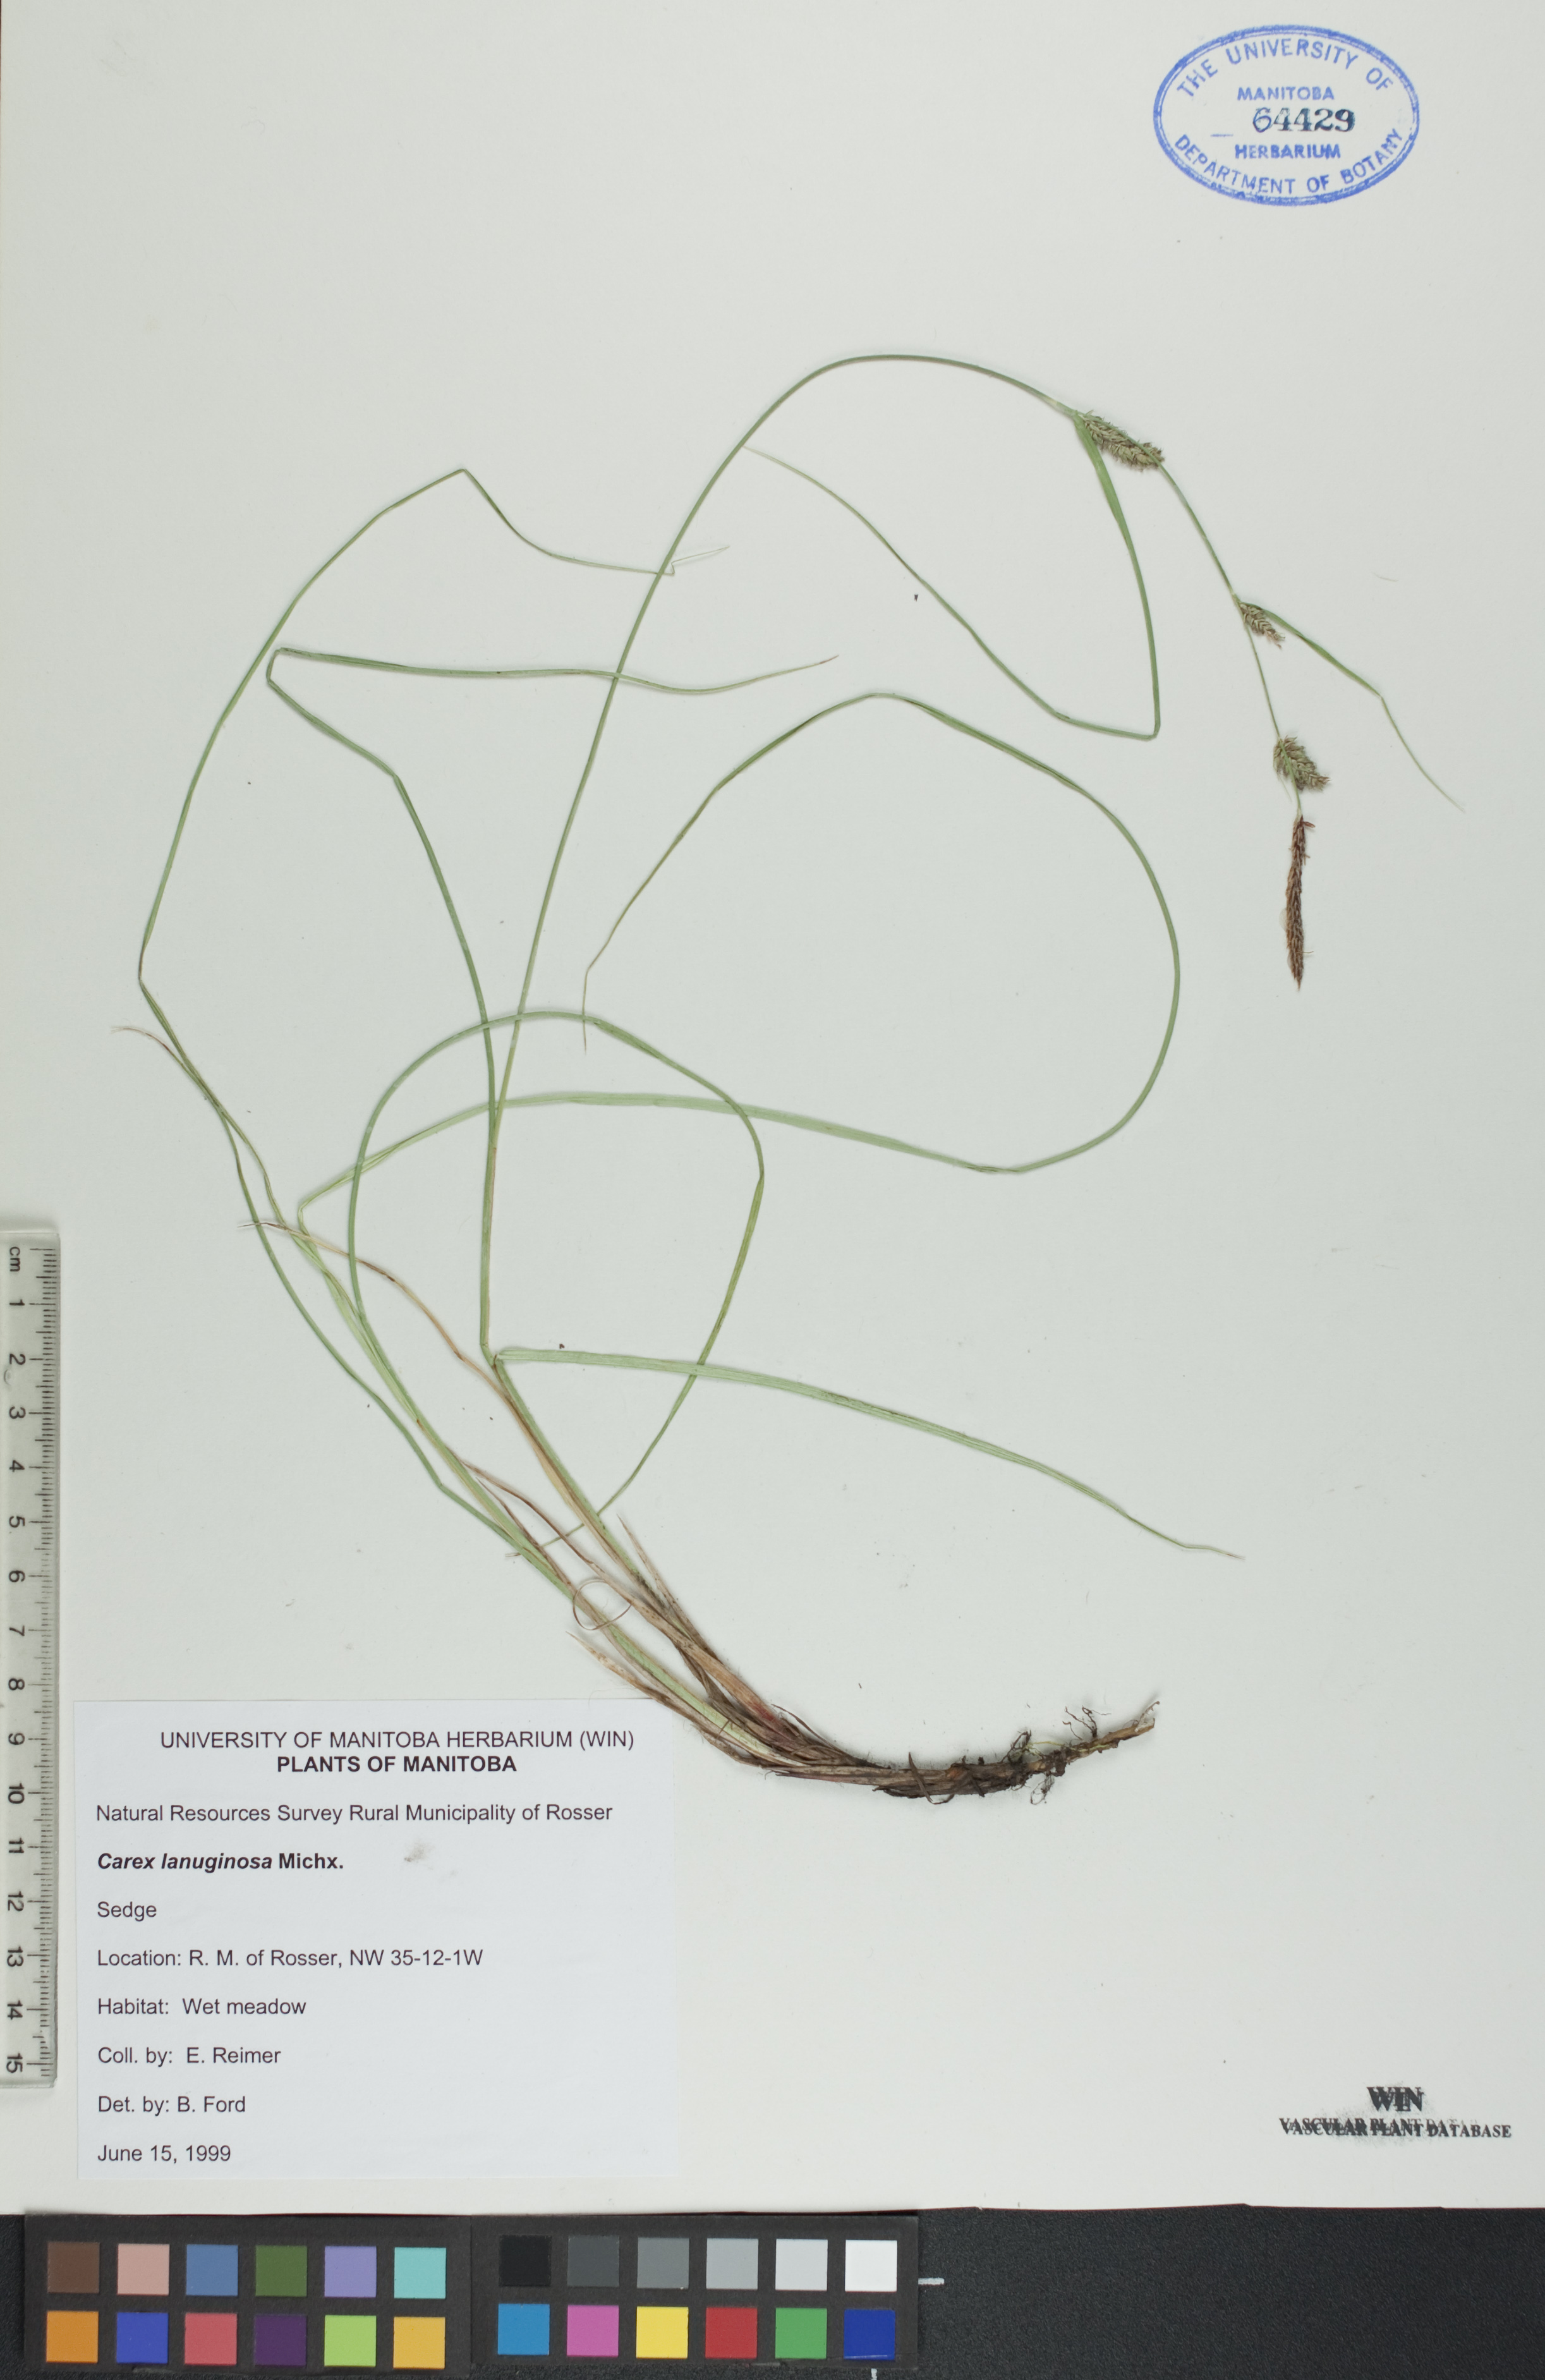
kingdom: Plantae
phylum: Tracheophyta
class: Liliopsida
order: Poales
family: Cyperaceae
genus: Carex
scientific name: Carex lasiocarpa
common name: Slender sedge
